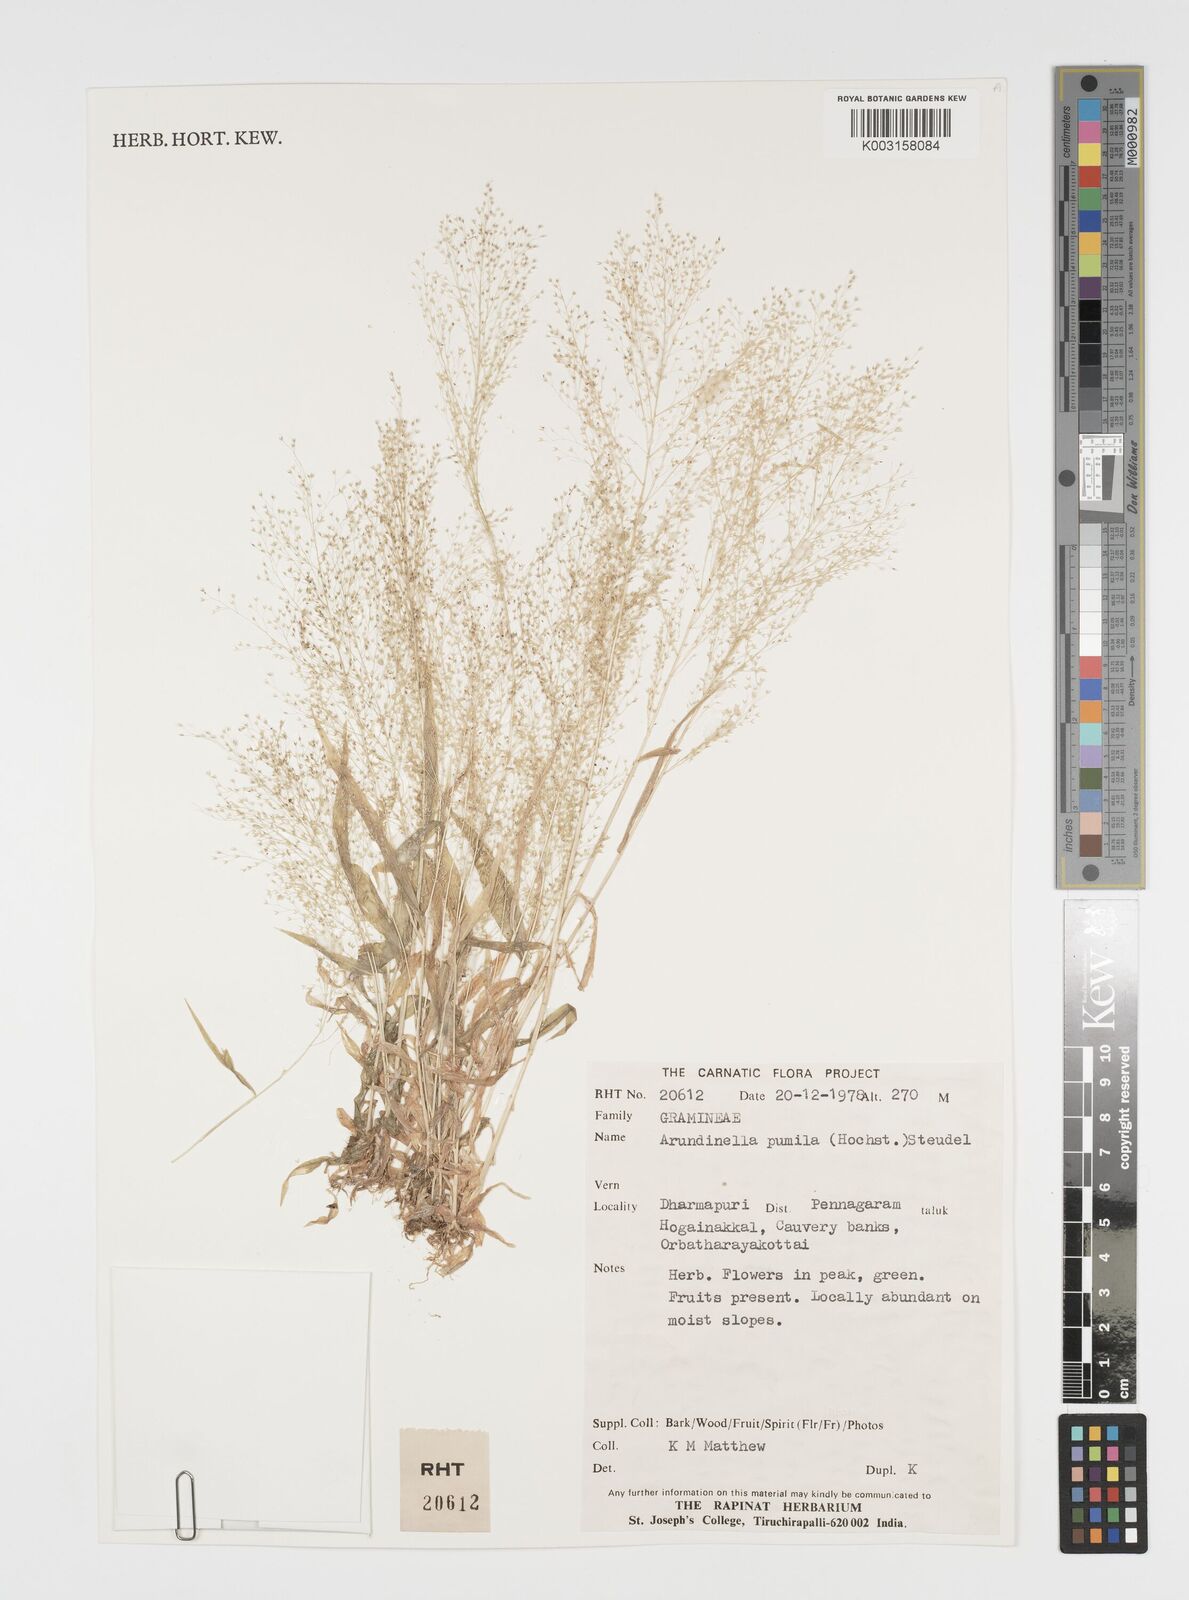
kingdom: Plantae
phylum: Tracheophyta
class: Liliopsida
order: Poales
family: Poaceae
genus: Arundinella
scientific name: Arundinella pumila
